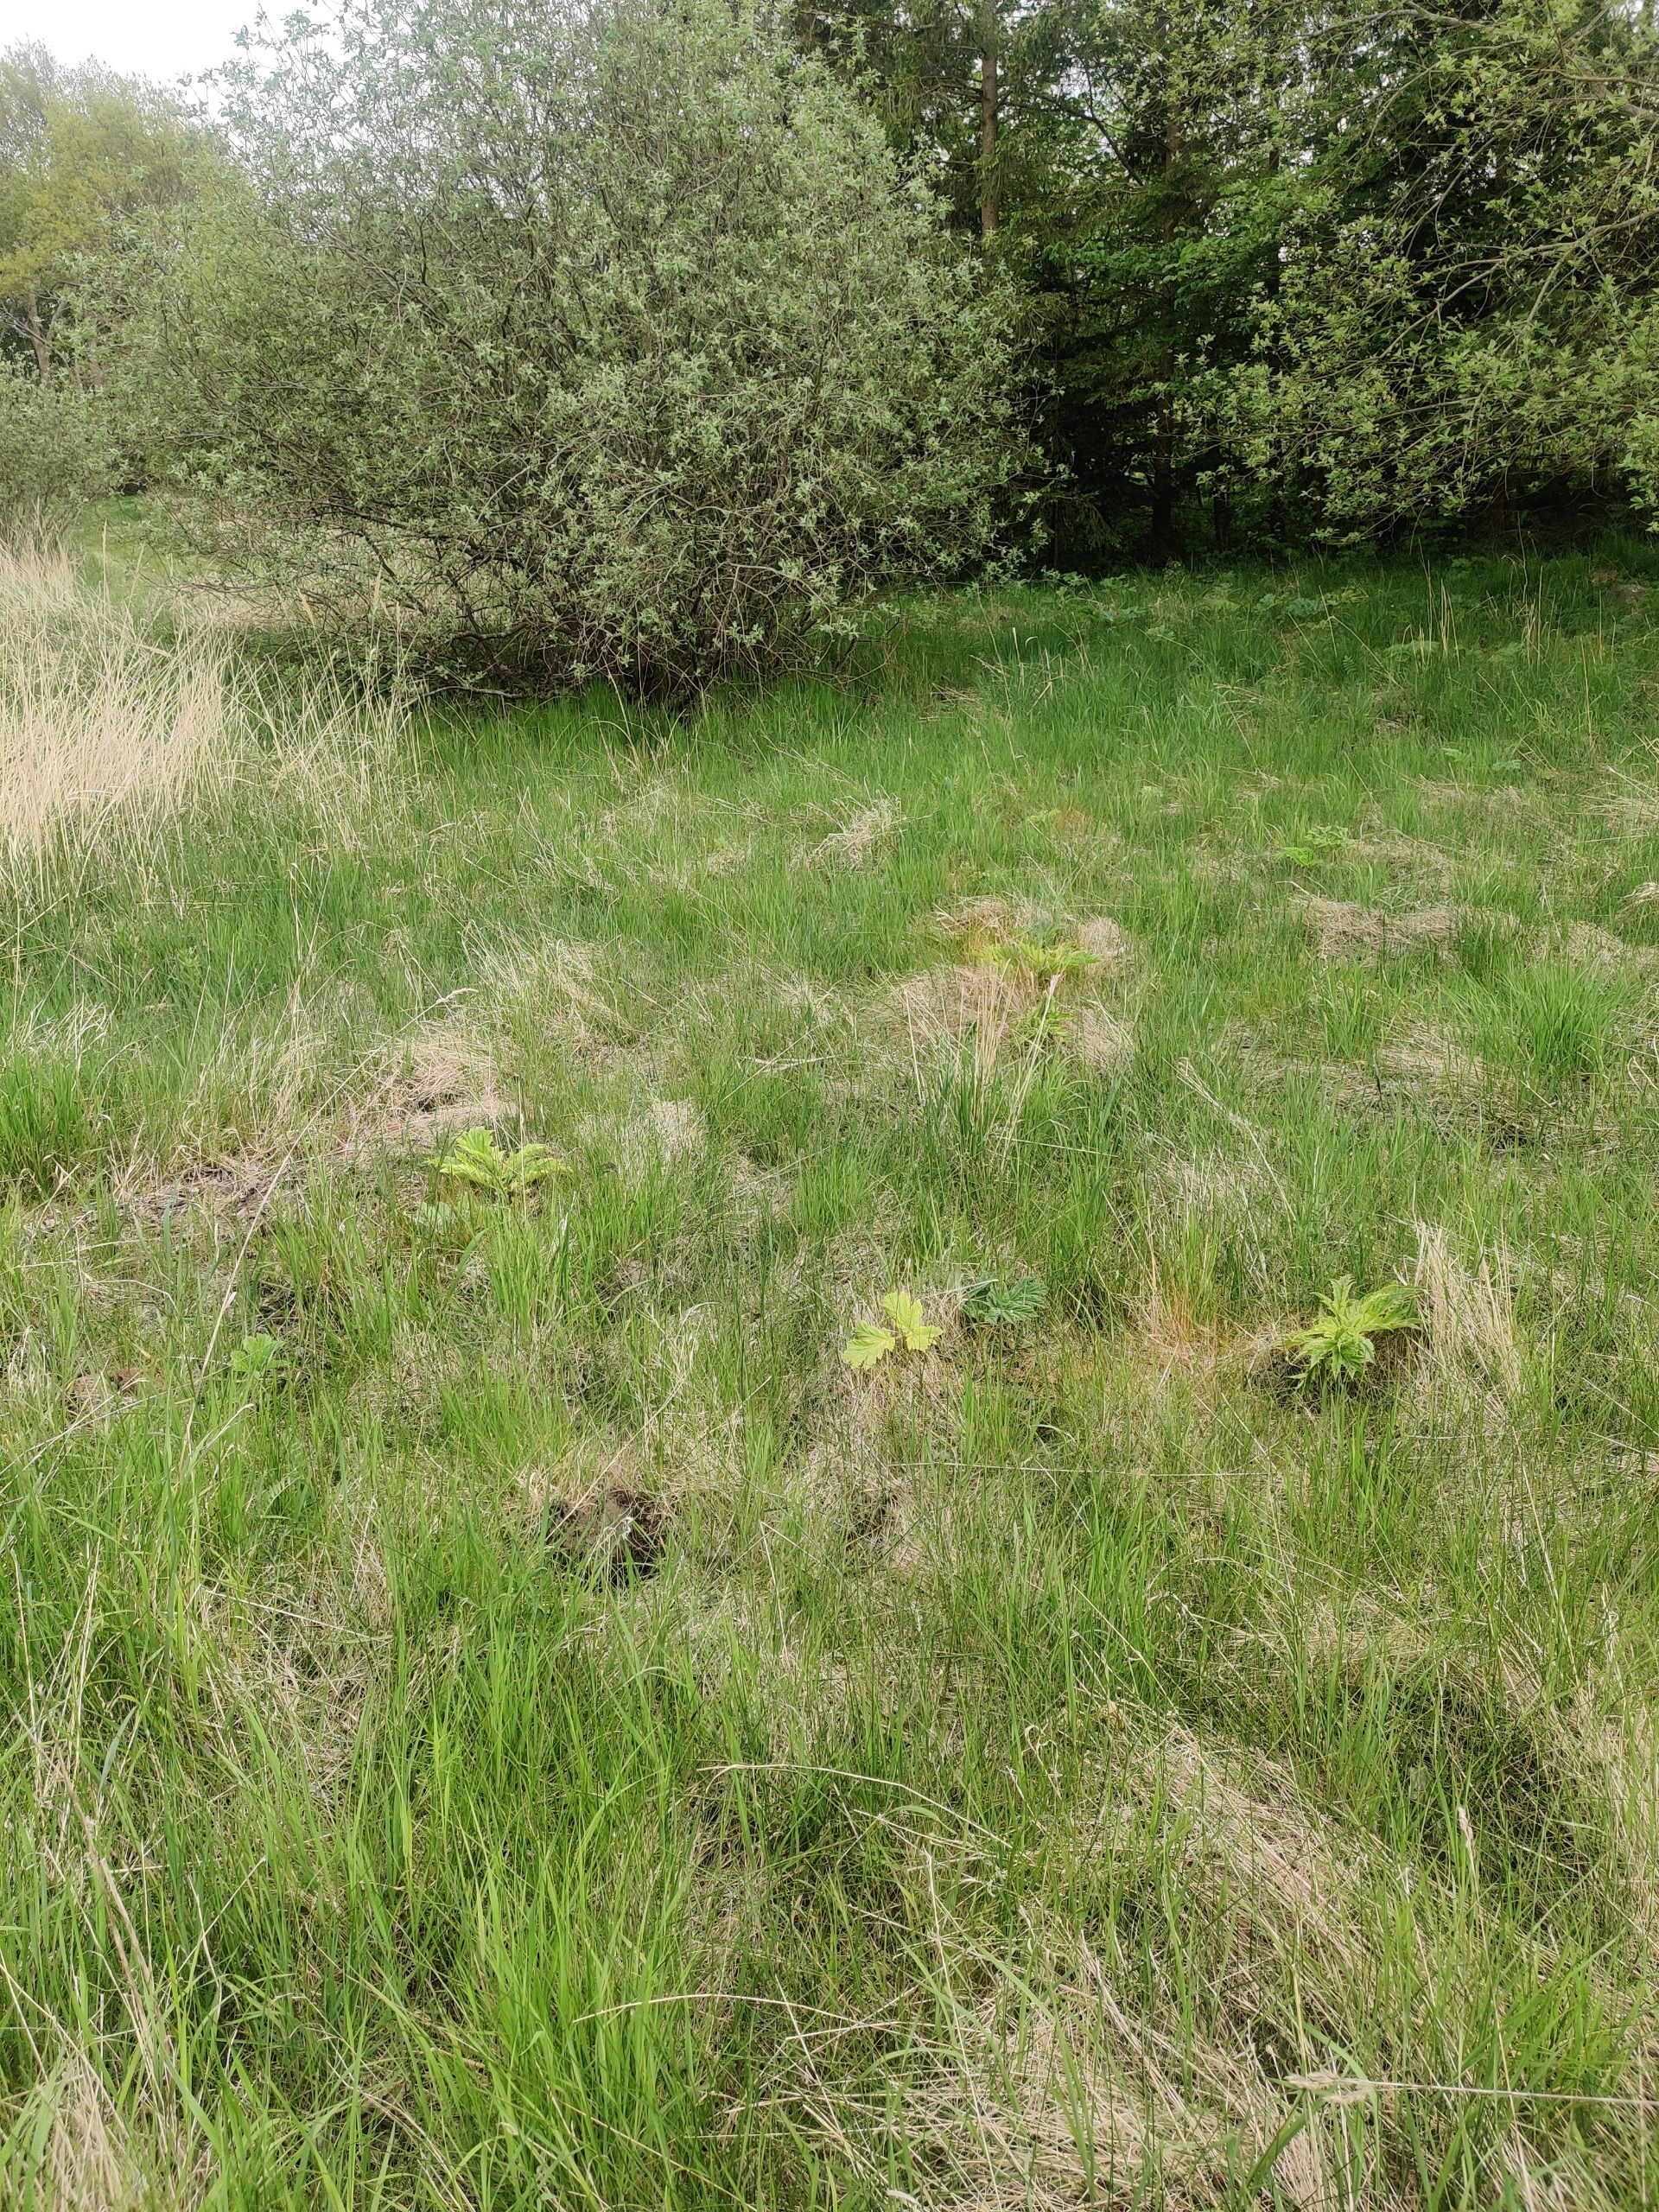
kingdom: Plantae
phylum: Tracheophyta
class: Magnoliopsida
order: Apiales
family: Apiaceae
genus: Heracleum
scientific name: Heracleum mantegazzianum
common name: Kæmpe-bjørneklo
